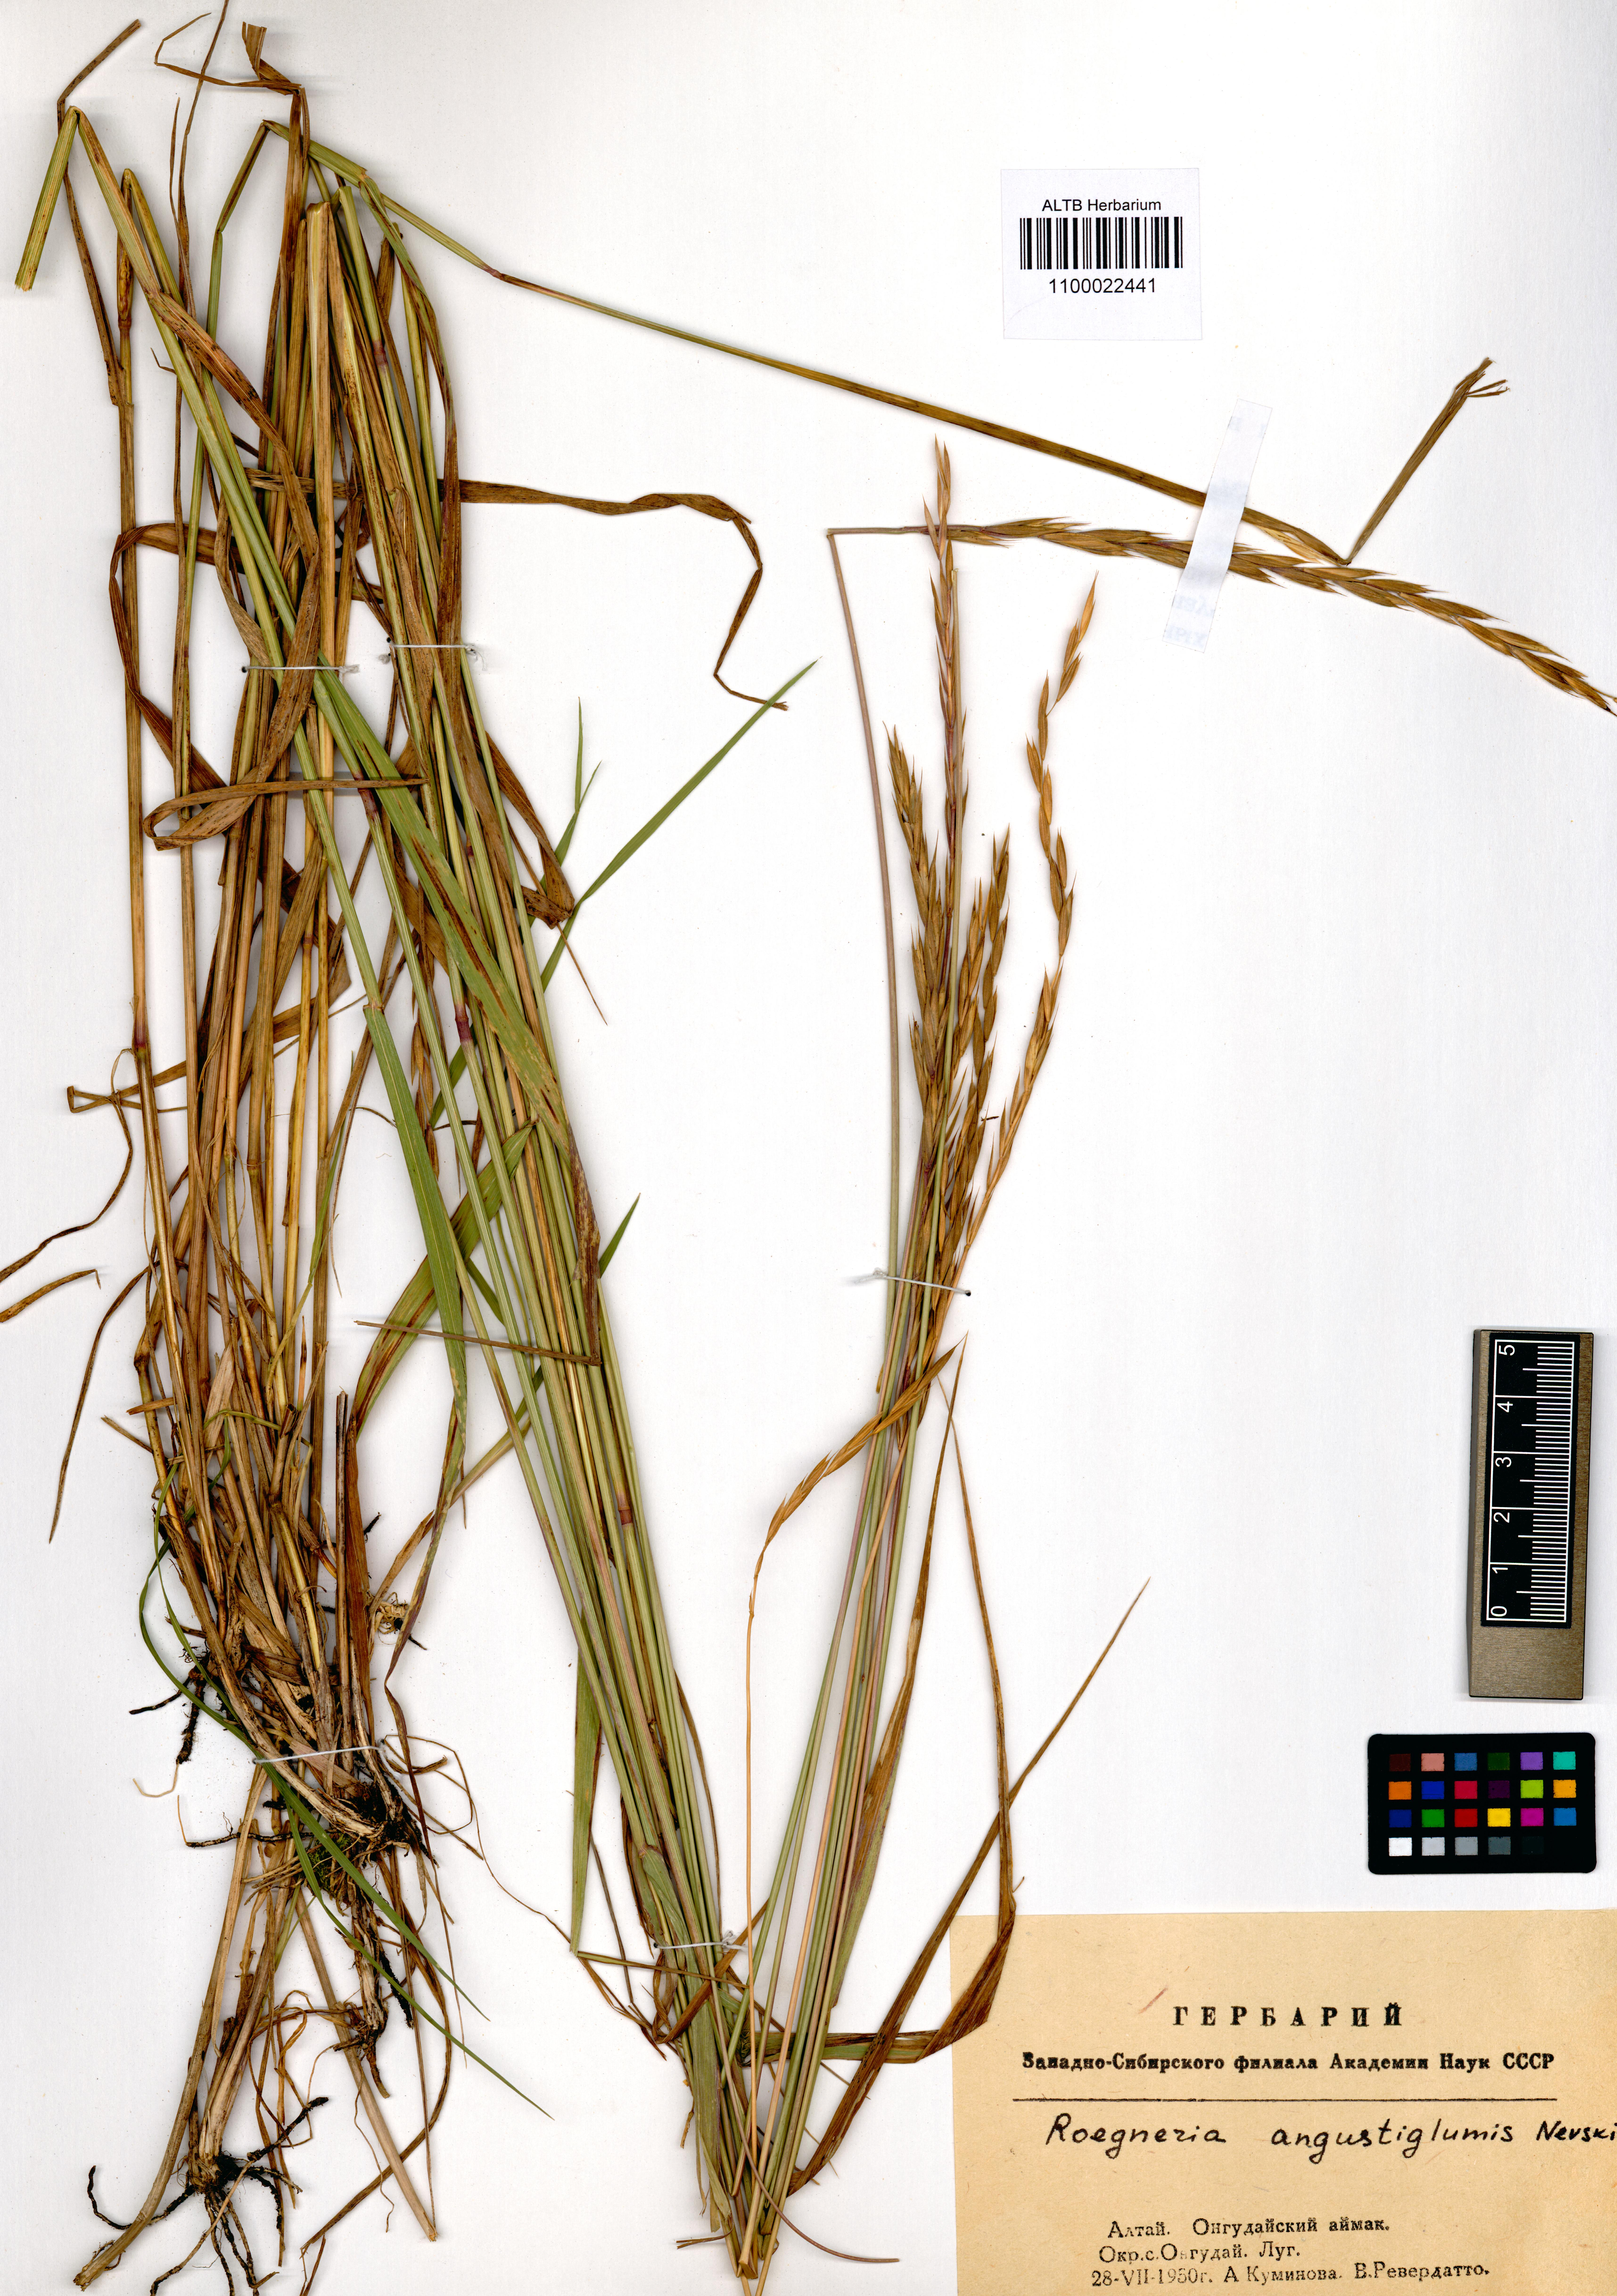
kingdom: Plantae
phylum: Tracheophyta
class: Liliopsida
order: Poales
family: Poaceae
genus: Elymus
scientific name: Elymus mutabilis
